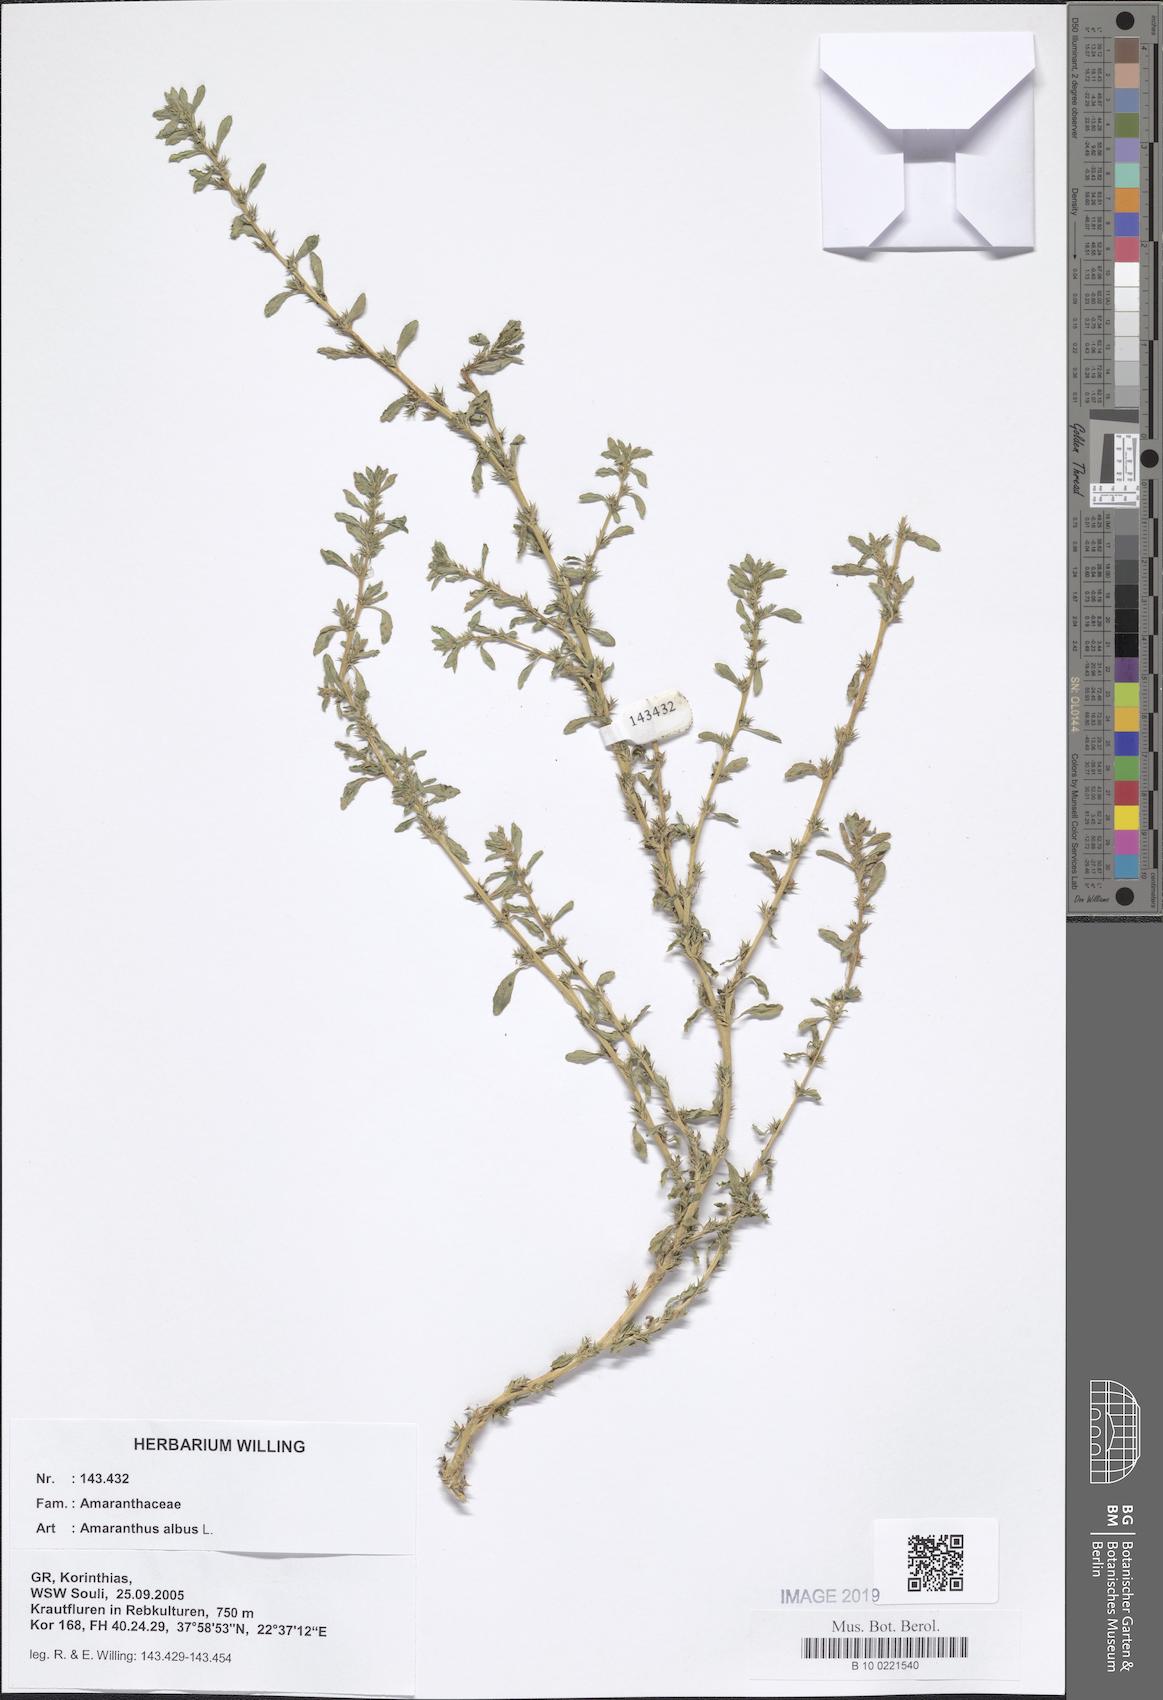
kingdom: Plantae
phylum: Tracheophyta
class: Magnoliopsida
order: Caryophyllales
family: Amaranthaceae
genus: Amaranthus
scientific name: Amaranthus albus
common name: White pigweed
